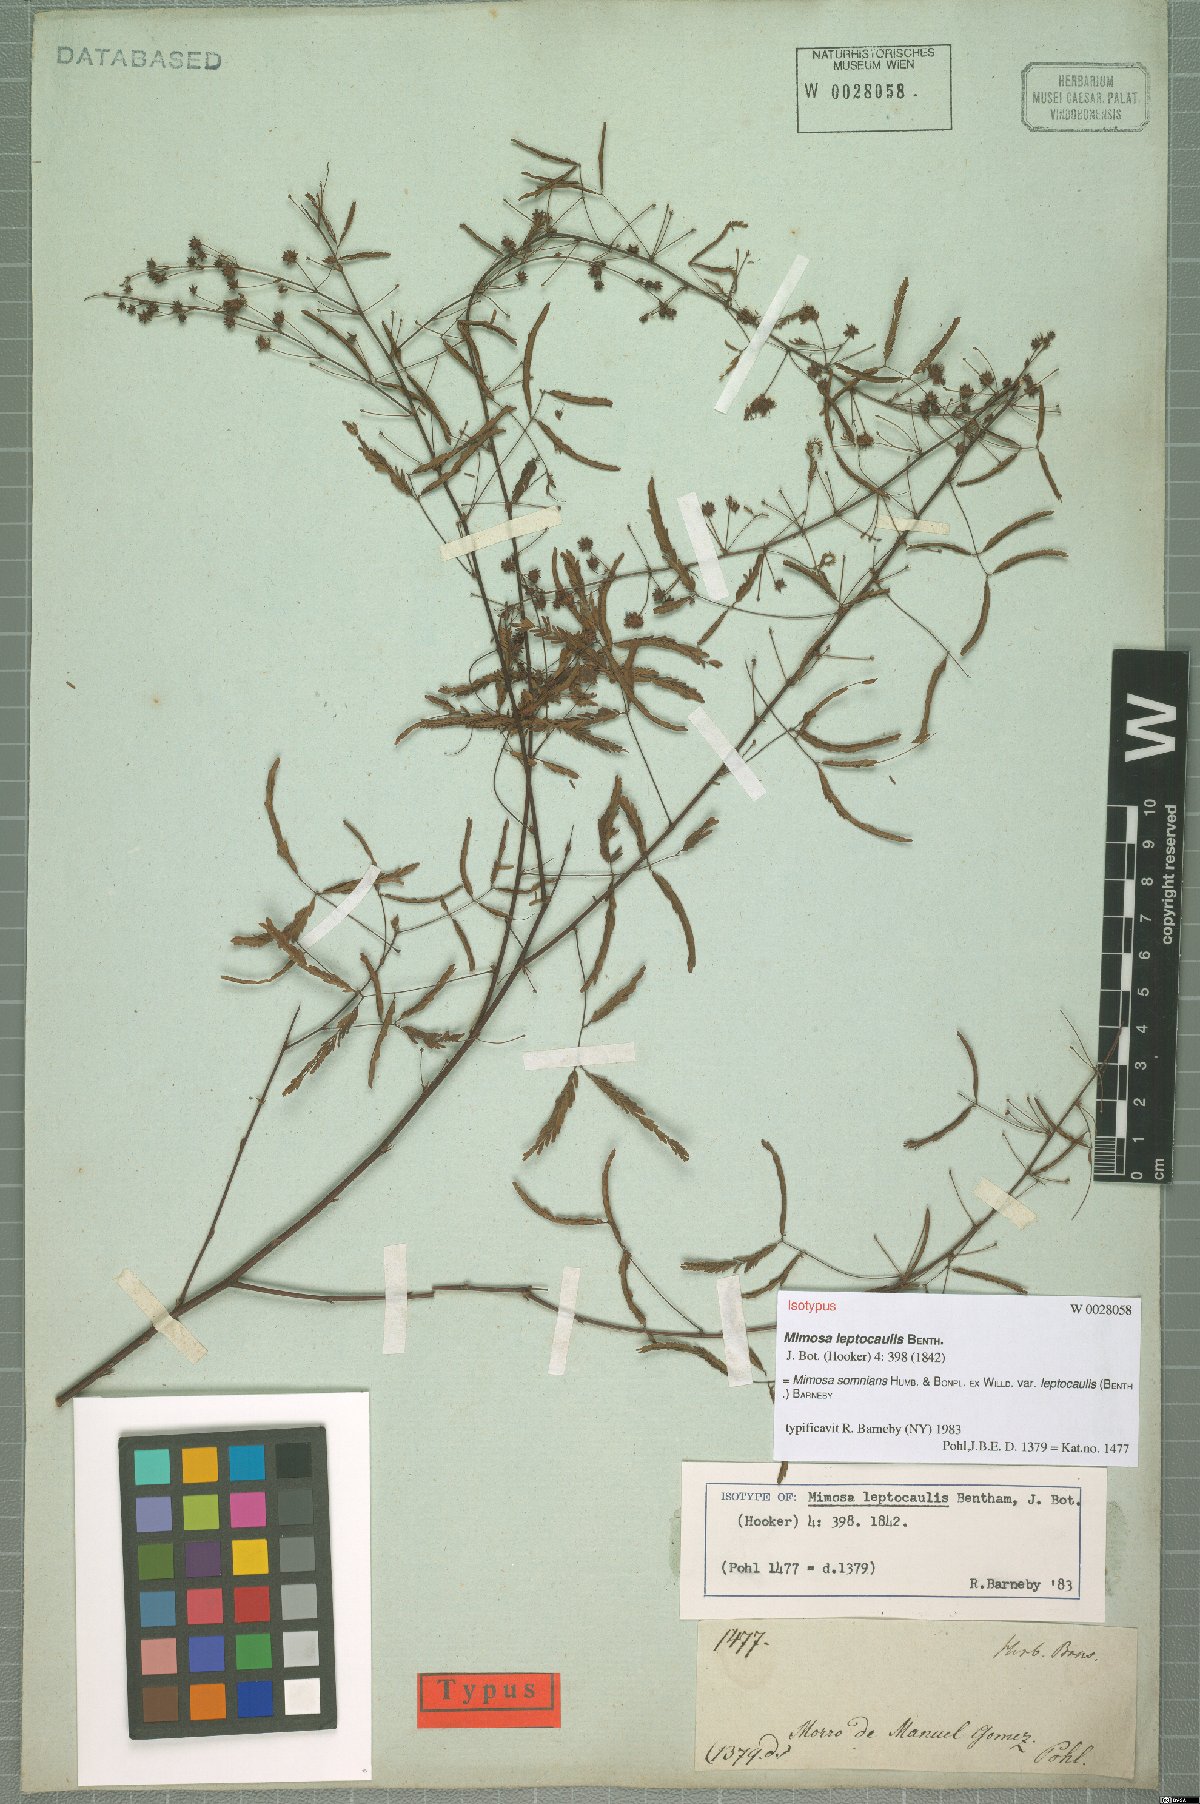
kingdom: Plantae
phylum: Tracheophyta
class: Magnoliopsida
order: Fabales
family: Fabaceae
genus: Mimosa
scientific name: Mimosa somnians
